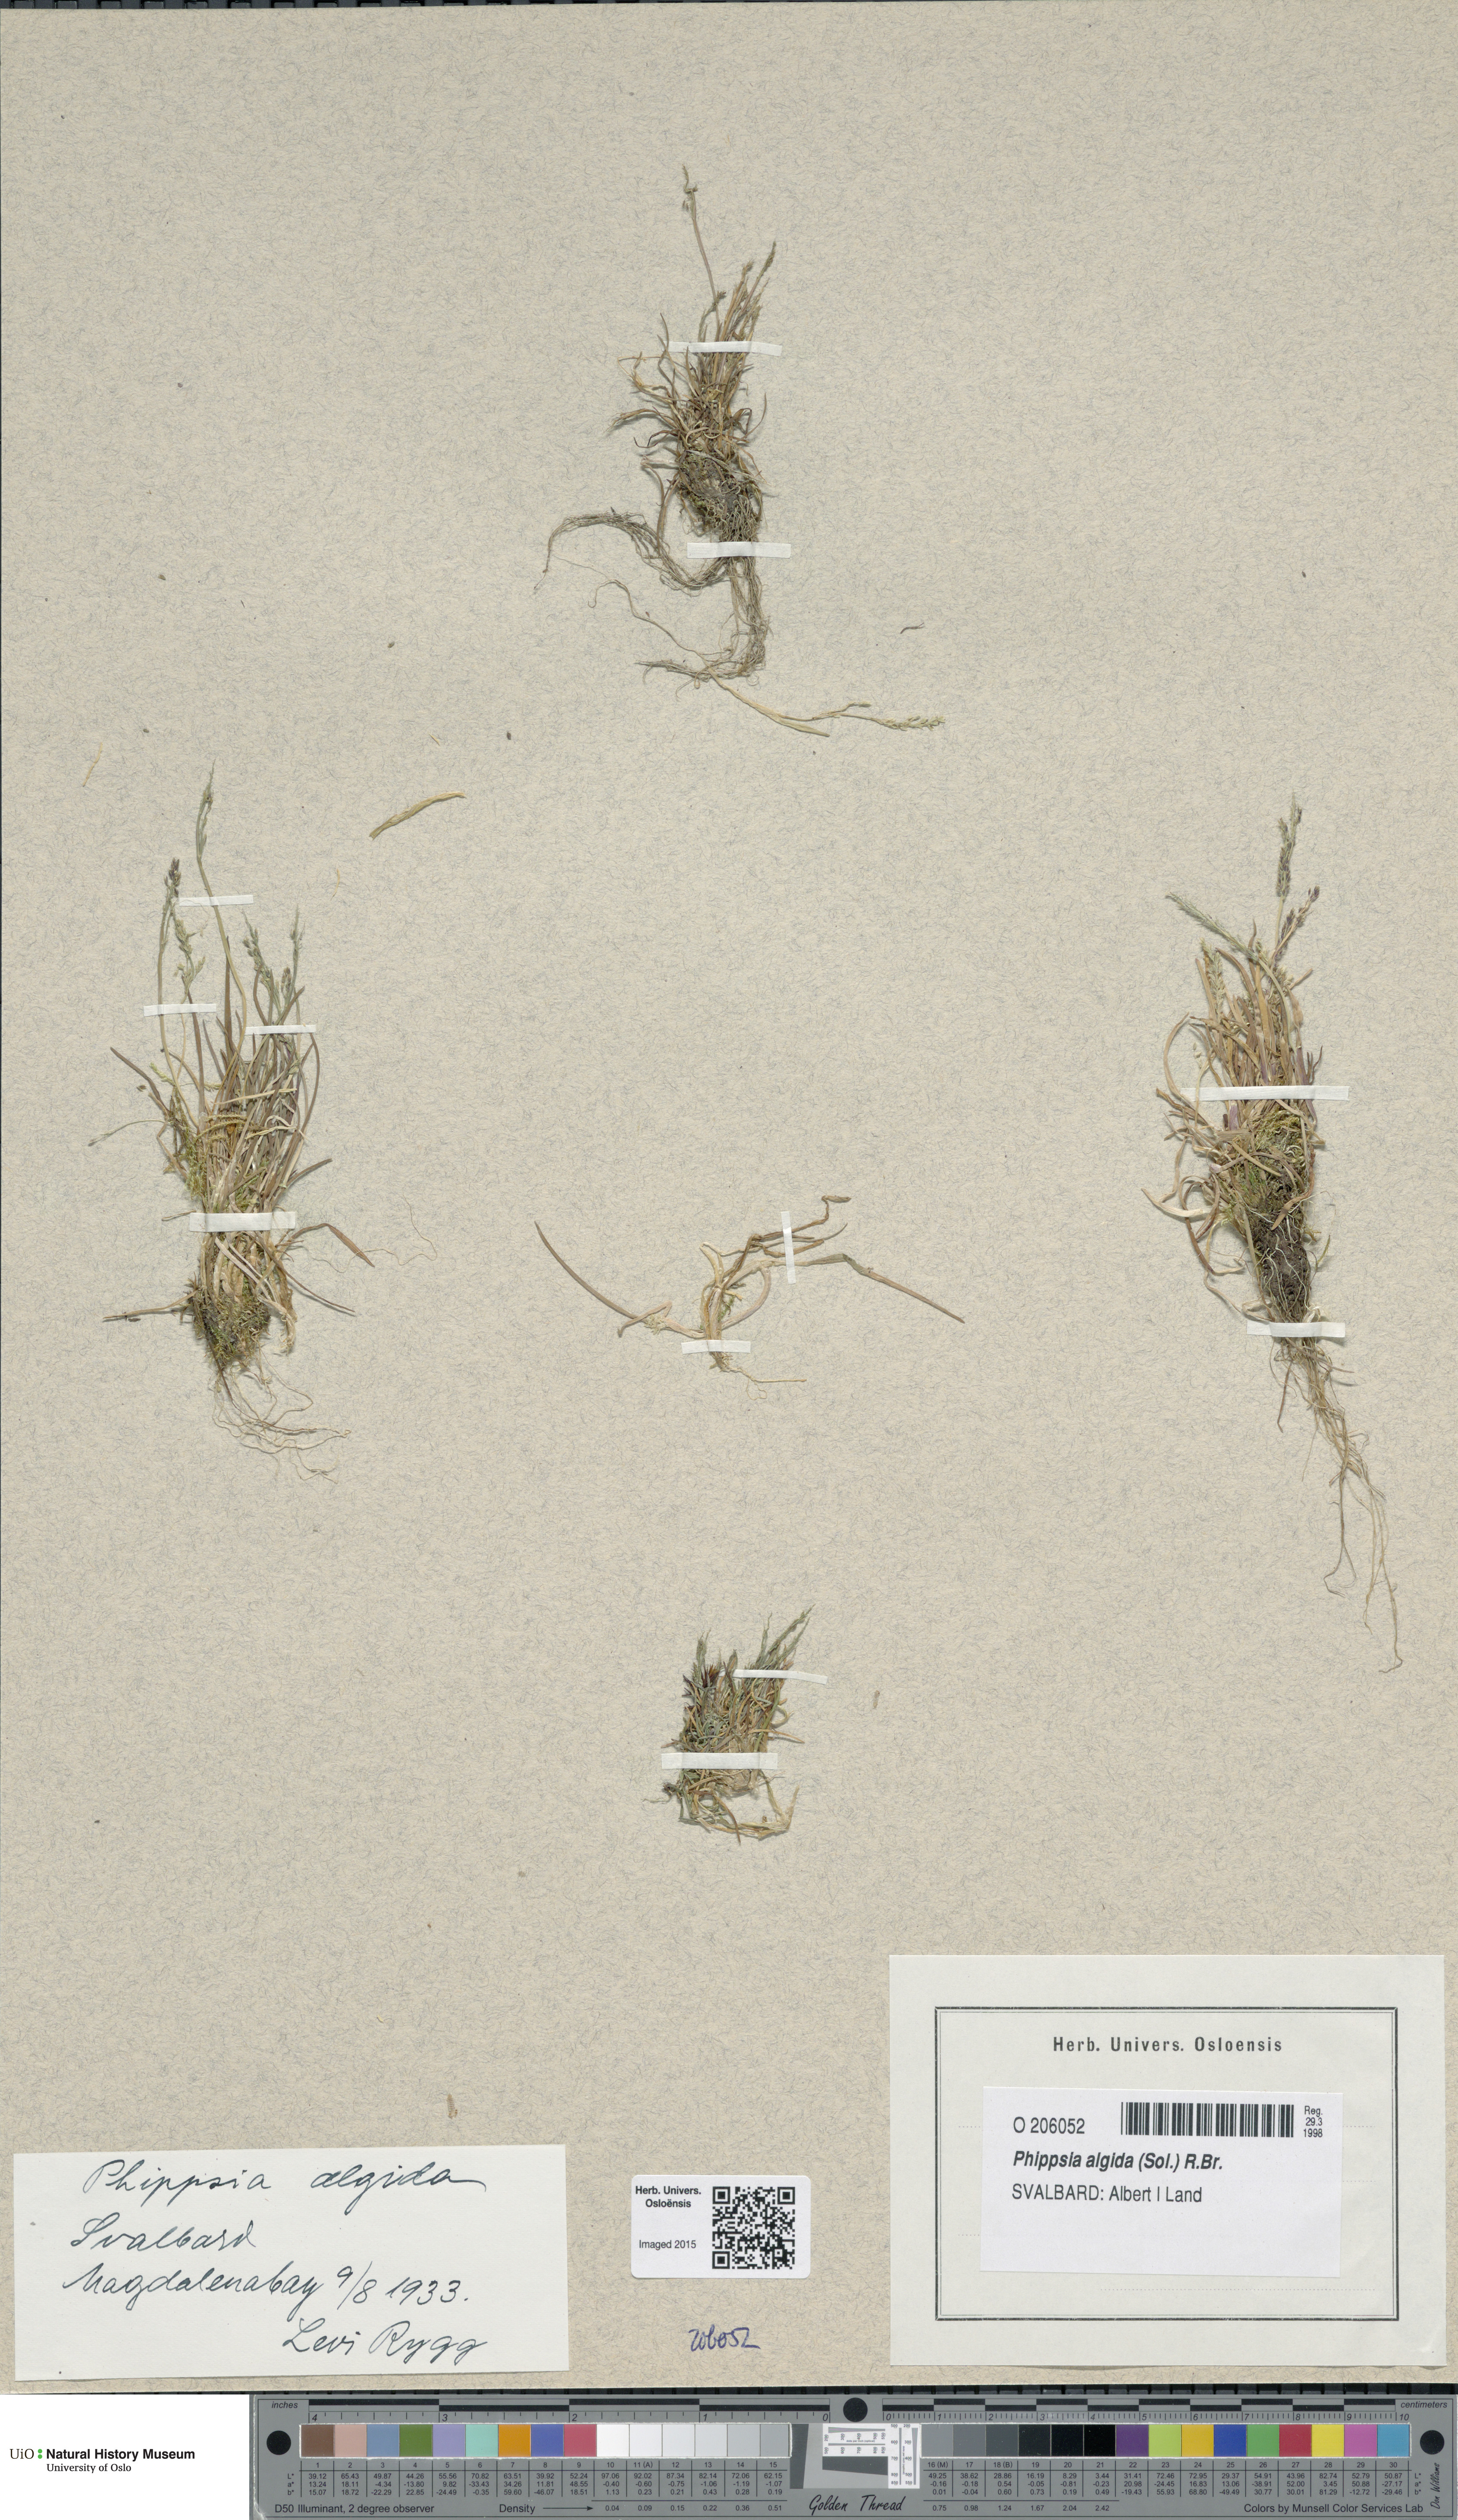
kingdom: Plantae
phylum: Tracheophyta
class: Liliopsida
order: Poales
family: Poaceae
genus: Phippsia
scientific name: Phippsia algida
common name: Ice grass
